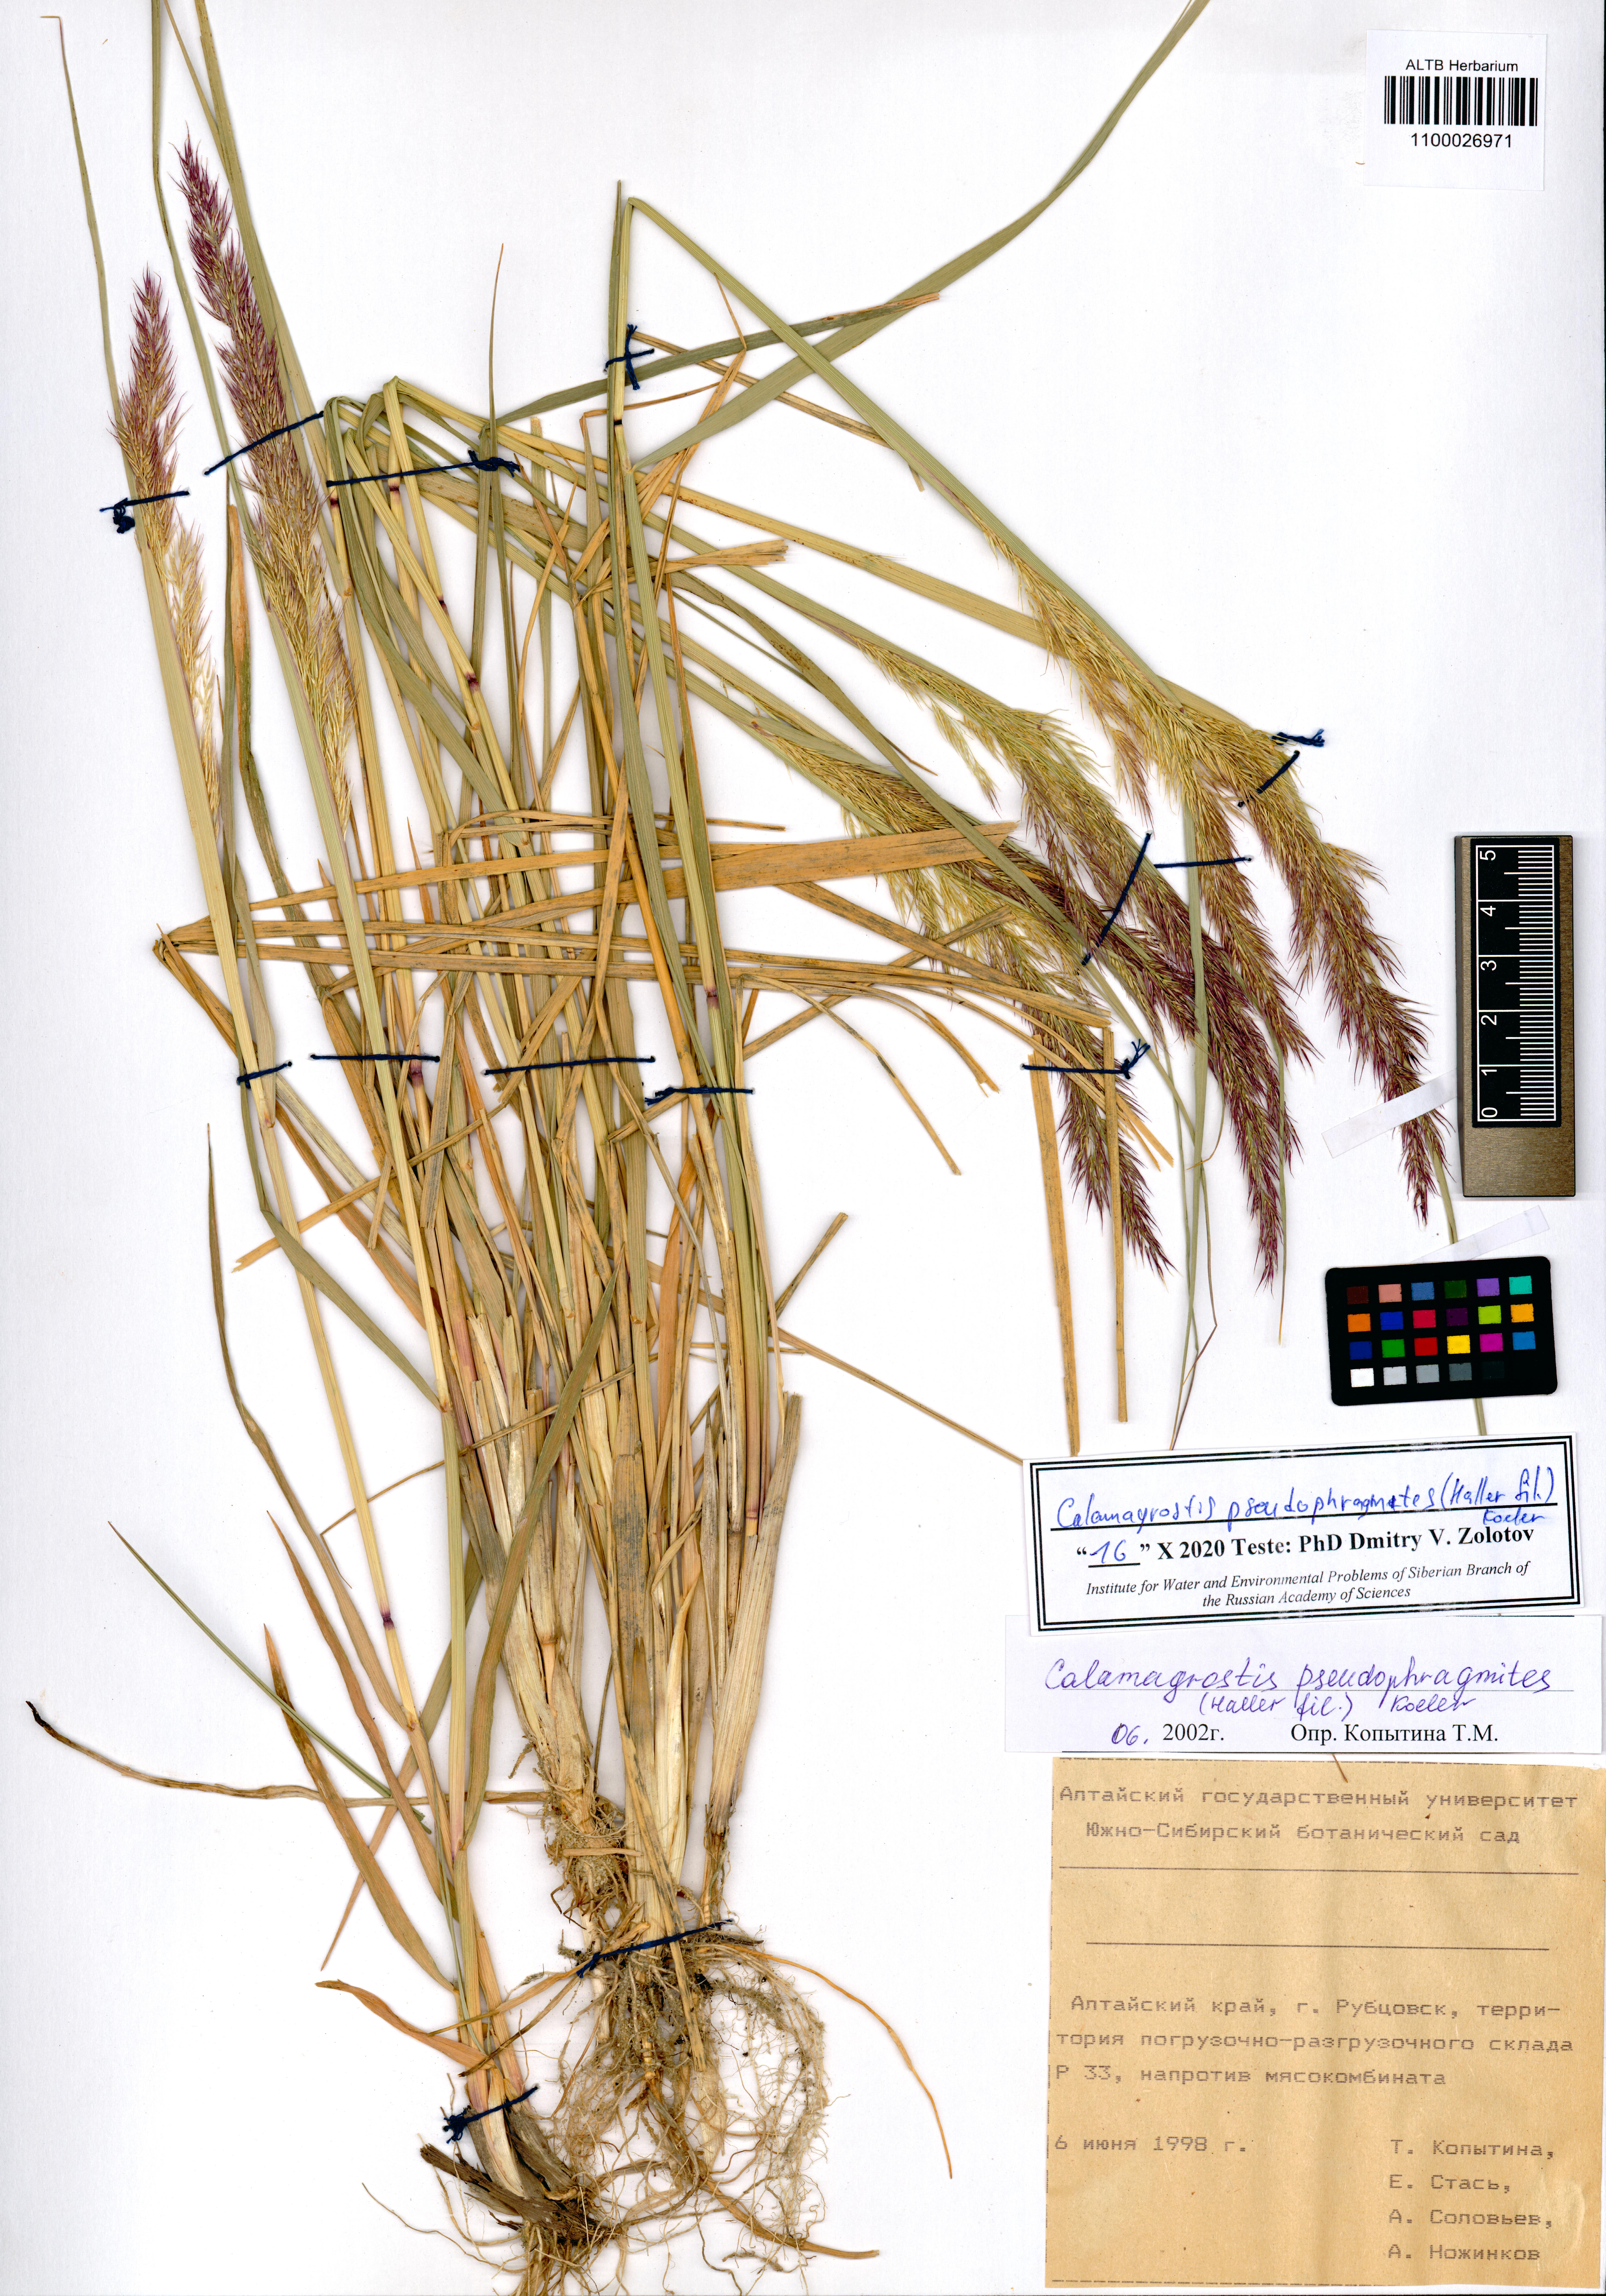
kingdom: Plantae
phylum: Tracheophyta
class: Liliopsida
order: Poales
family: Poaceae
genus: Calamagrostis
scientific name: Calamagrostis pseudophragmites
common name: Coastal small-reed
